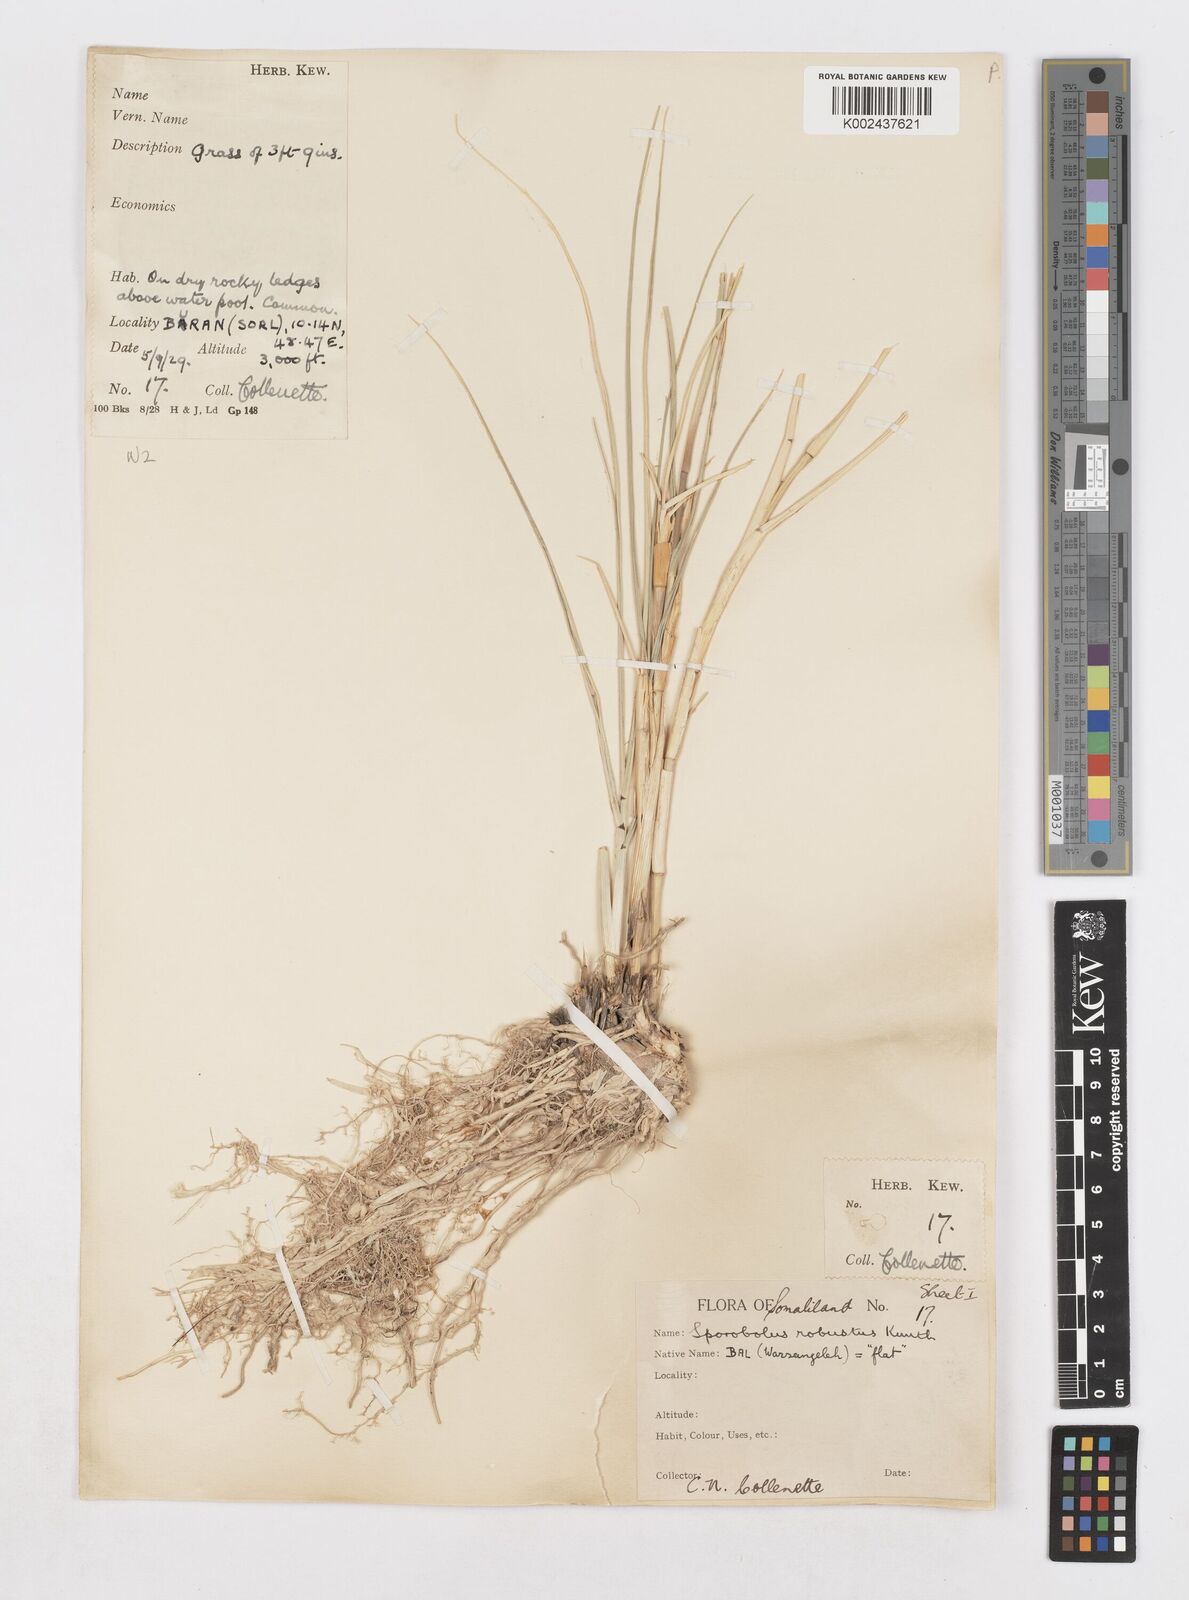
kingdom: Plantae
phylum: Tracheophyta
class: Liliopsida
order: Poales
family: Poaceae
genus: Sporobolus
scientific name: Sporobolus consimilis
